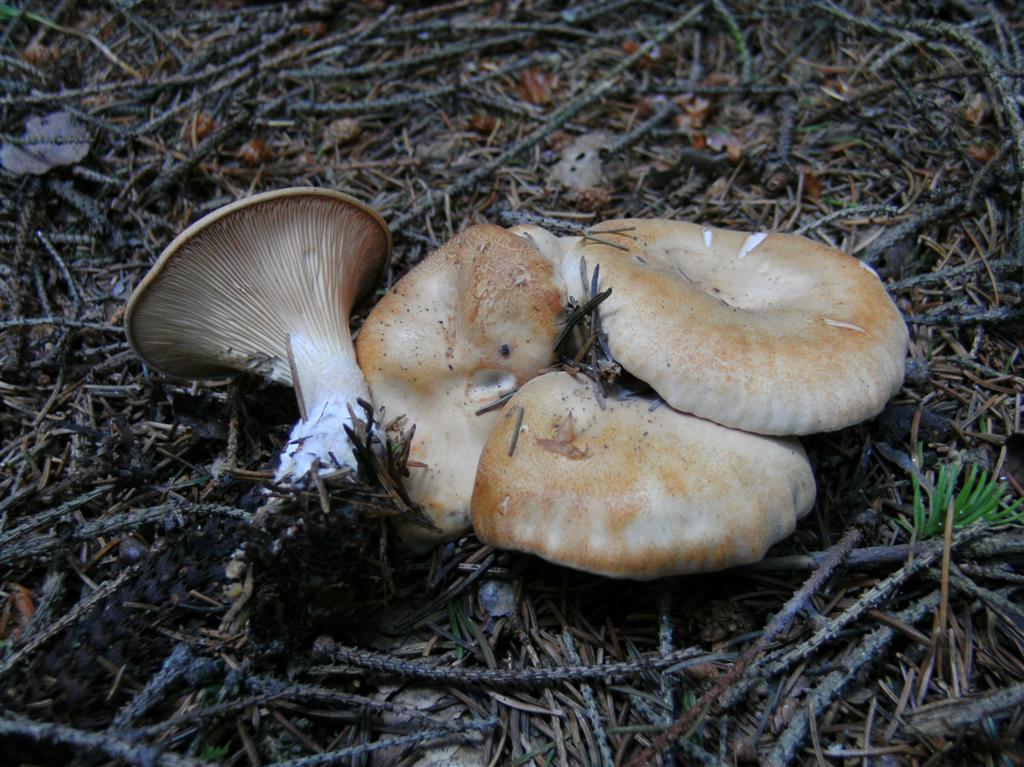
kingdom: Fungi
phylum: Basidiomycota
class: Agaricomycetes
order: Agaricales
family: Tricholomataceae
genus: Paralepista
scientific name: Paralepista gilva
